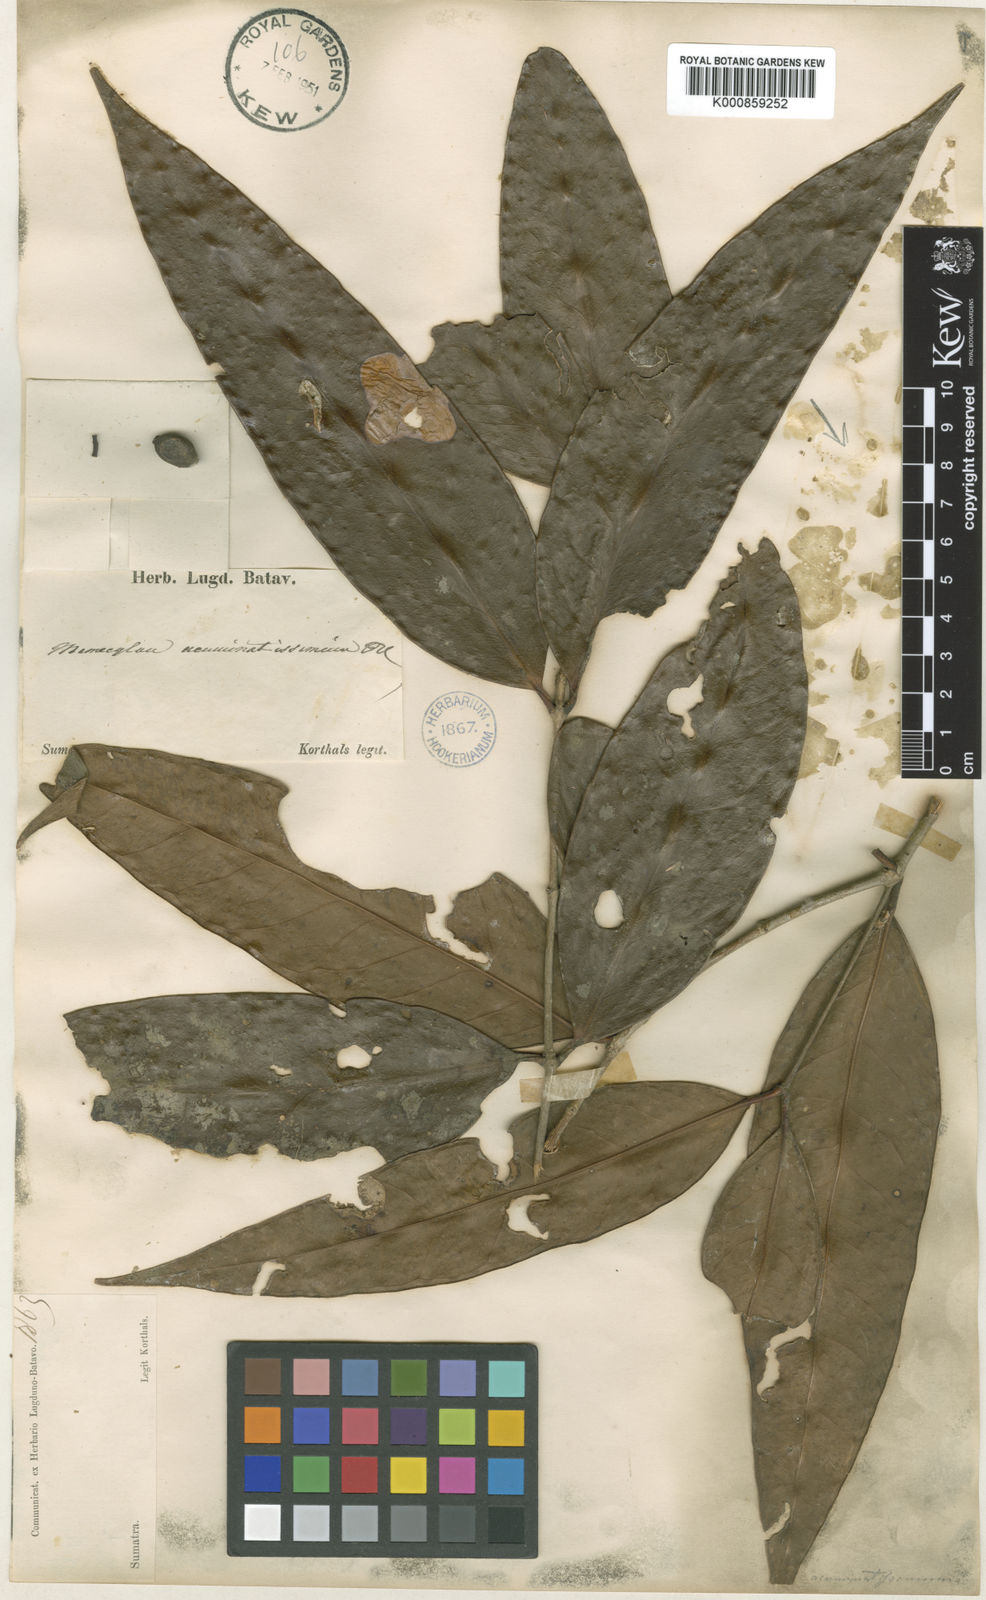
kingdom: Plantae
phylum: Tracheophyta
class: Magnoliopsida
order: Myrtales
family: Melastomataceae
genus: Memecylon
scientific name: Memecylon acuminatissimum
